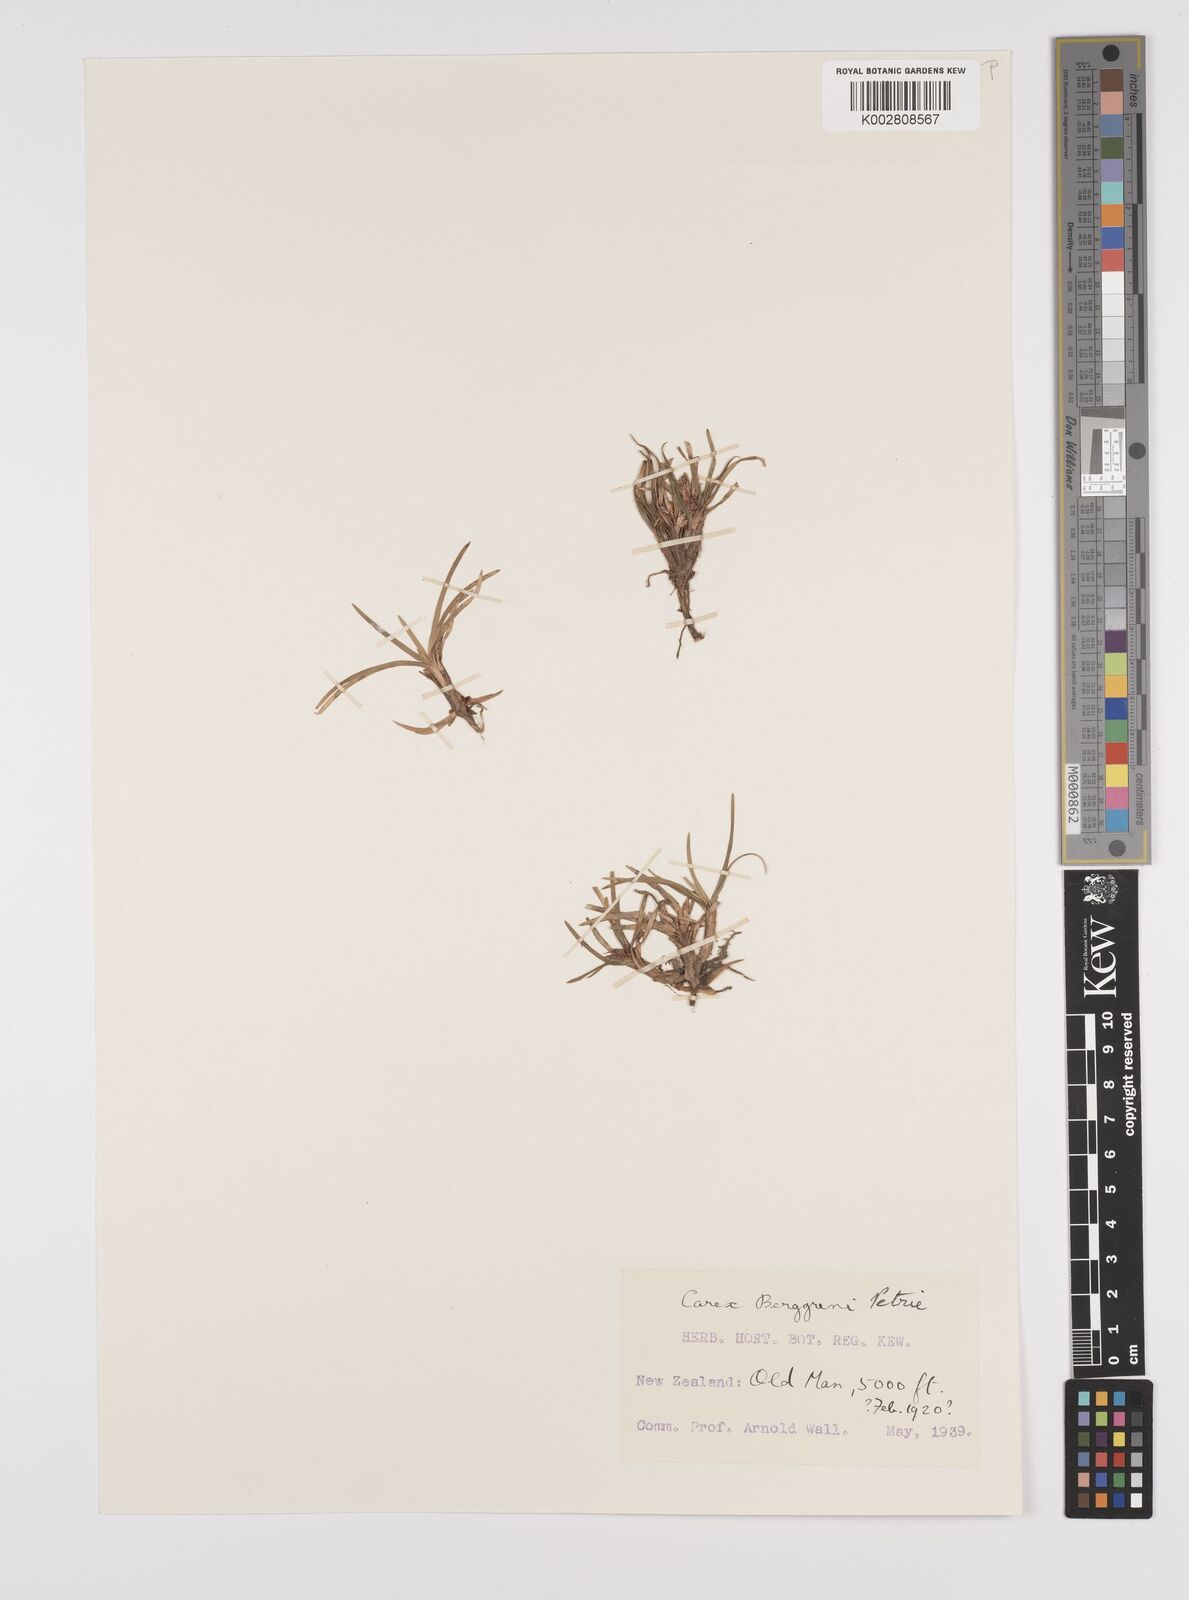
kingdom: Plantae
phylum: Tracheophyta
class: Liliopsida
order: Poales
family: Cyperaceae
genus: Carex
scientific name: Carex talbotii
